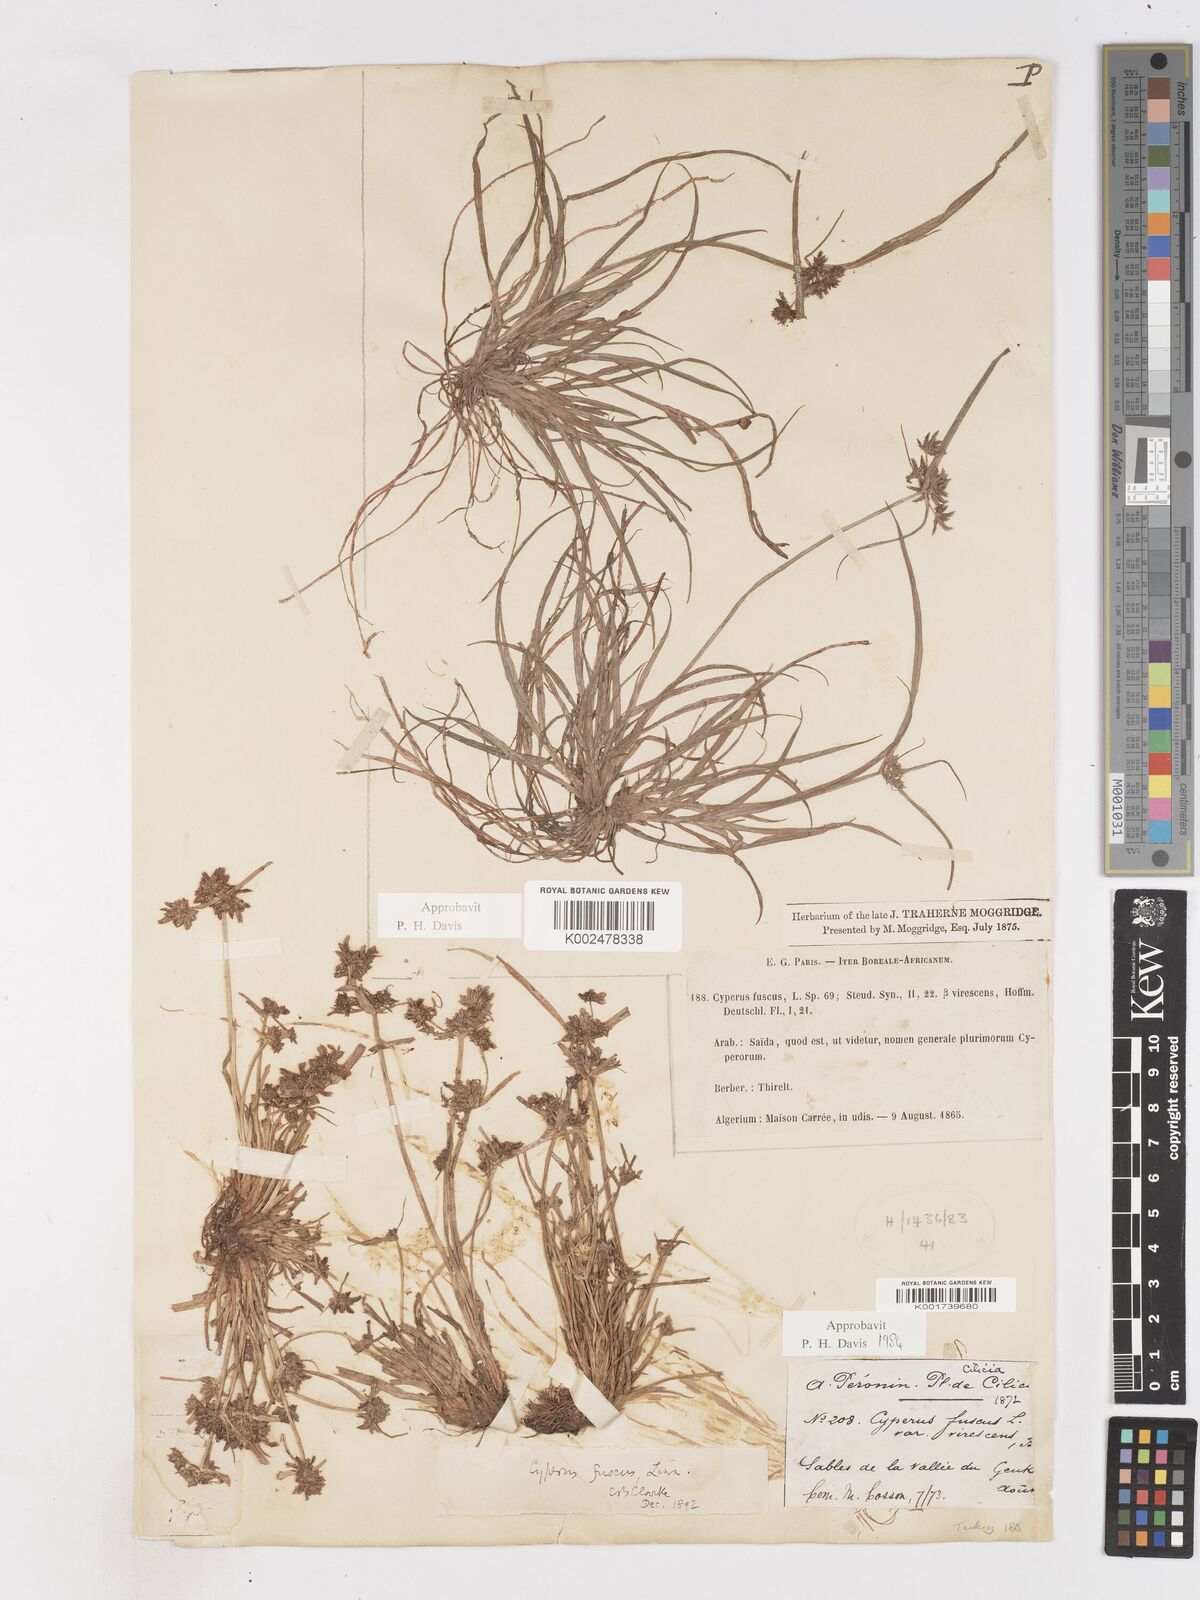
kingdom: Plantae
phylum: Tracheophyta
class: Liliopsida
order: Poales
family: Cyperaceae
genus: Cyperus
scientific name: Cyperus fuscus
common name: Brown galingale
